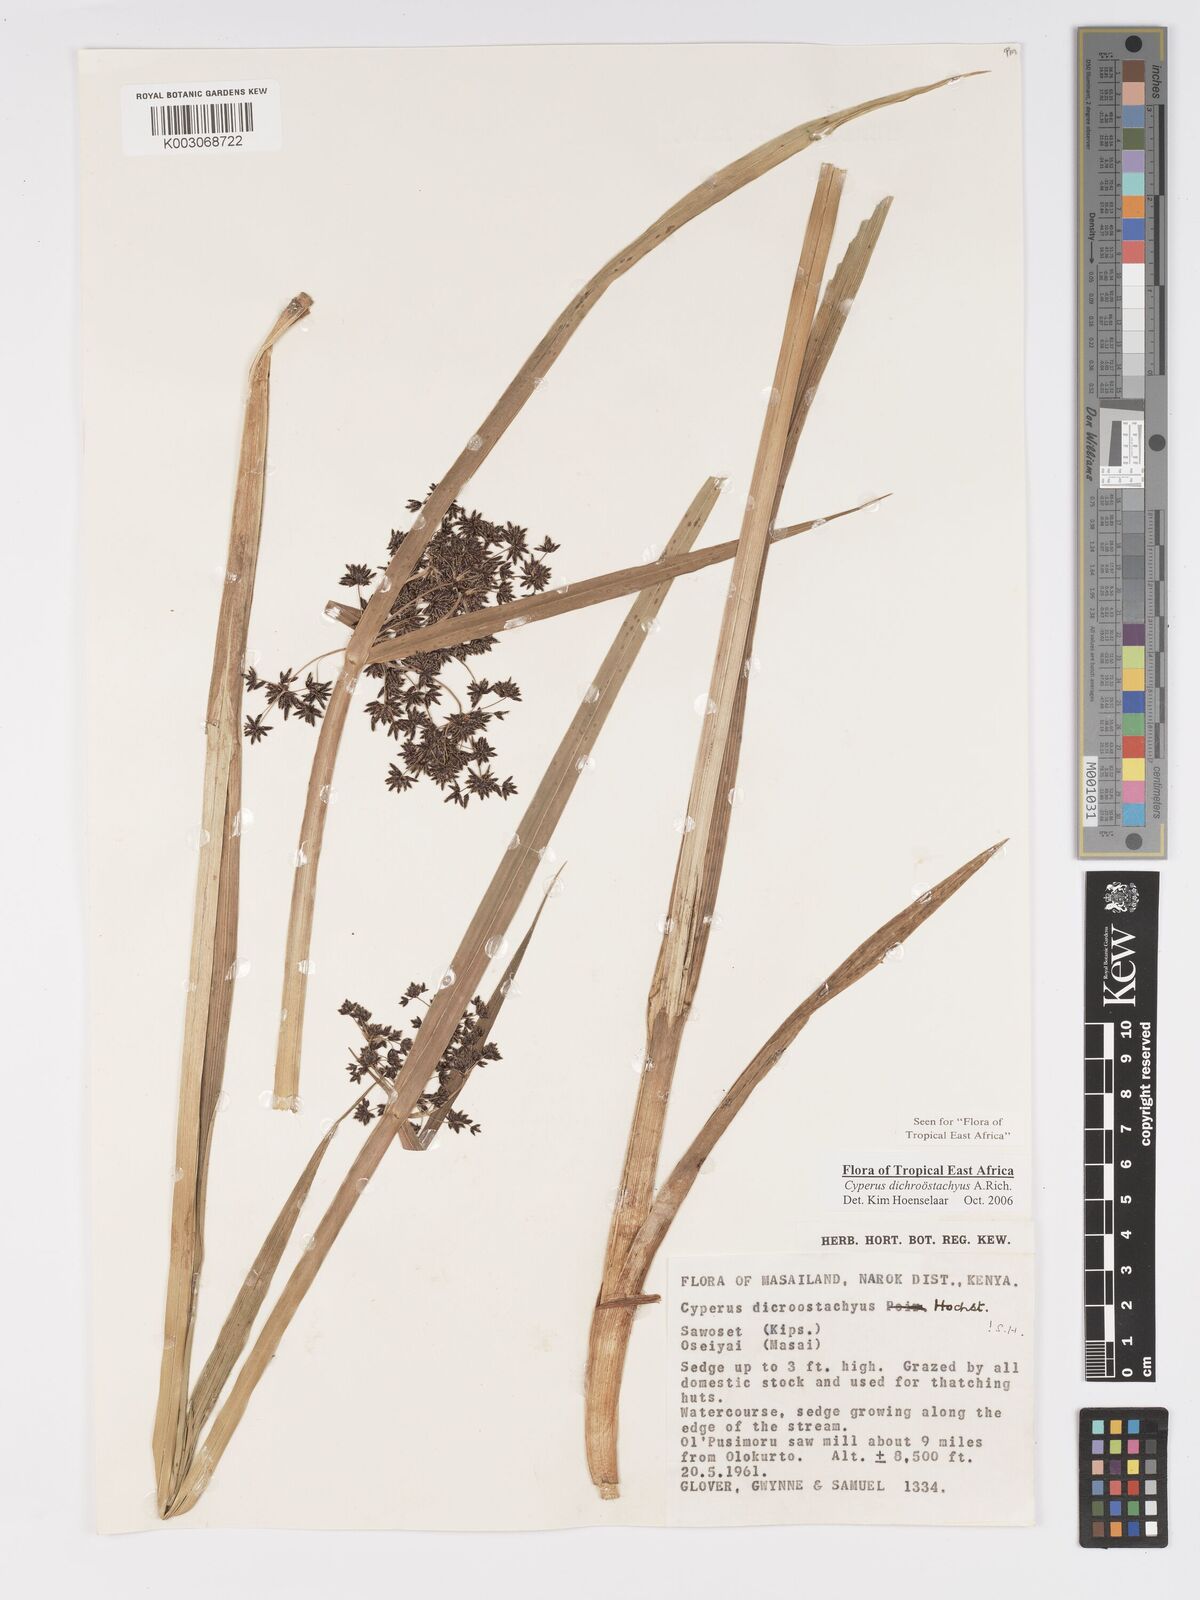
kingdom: Plantae
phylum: Tracheophyta
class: Liliopsida
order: Poales
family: Cyperaceae
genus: Cyperus
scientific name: Cyperus dichrostachyus
